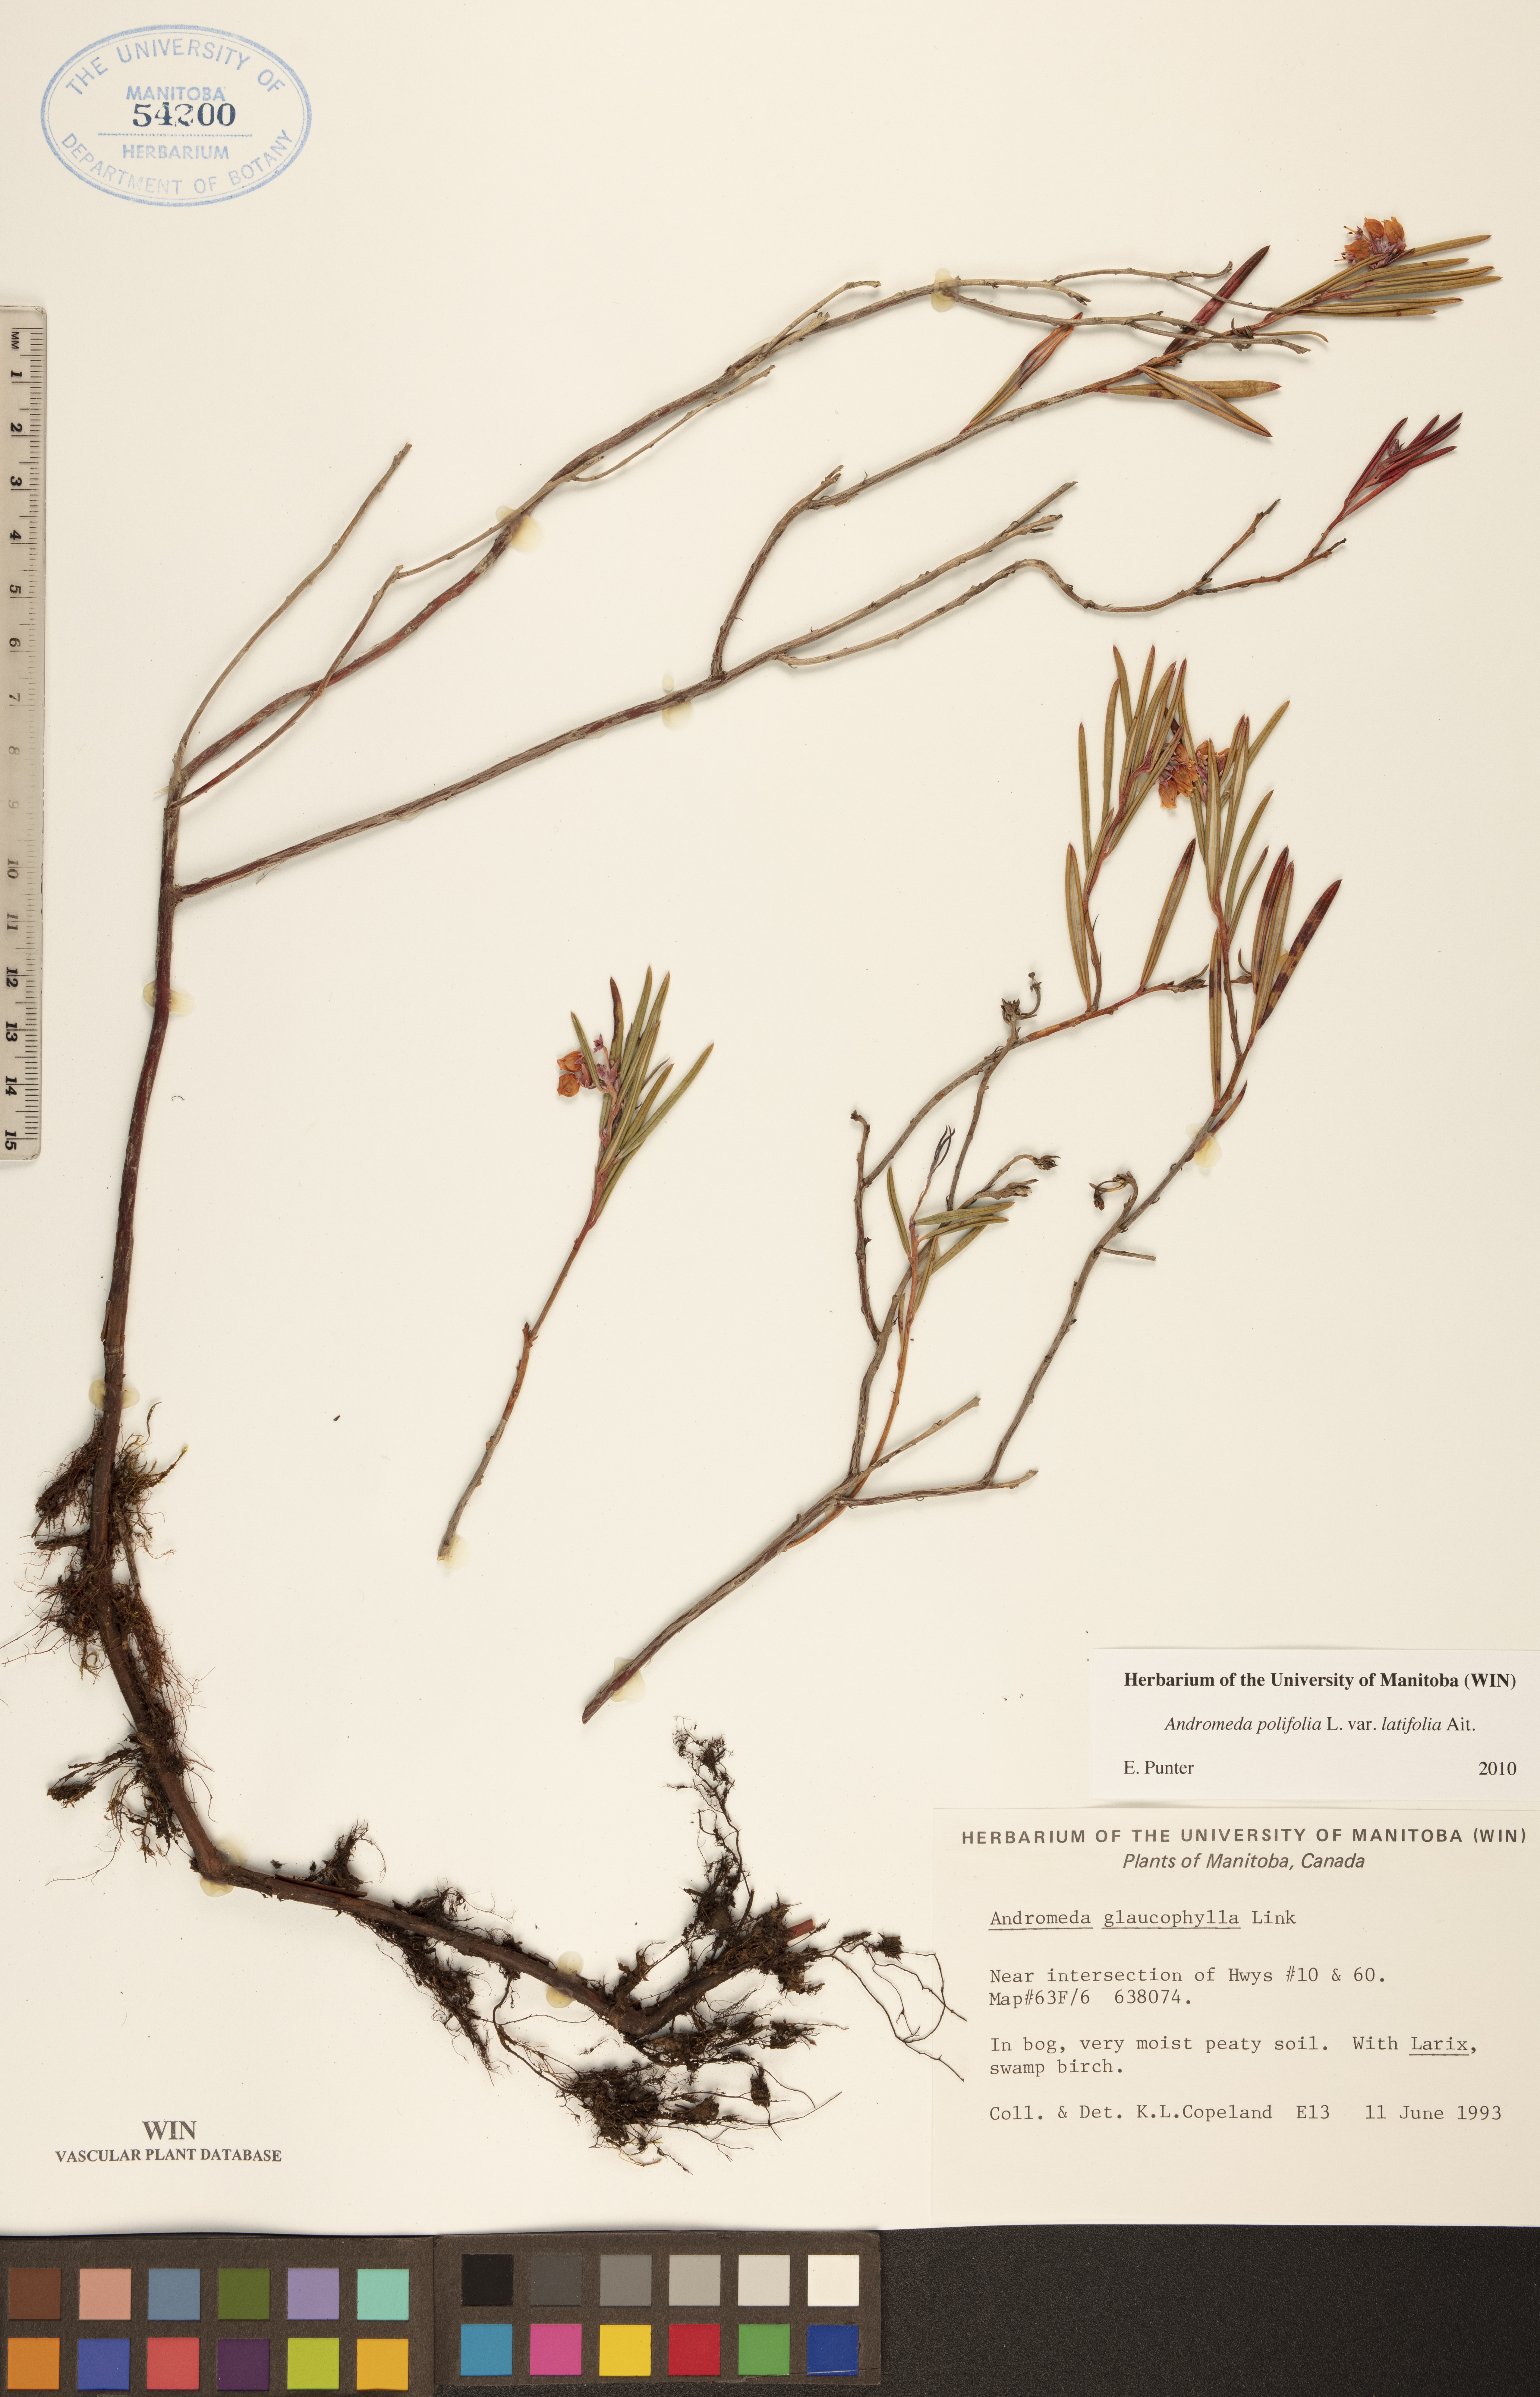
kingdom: Plantae
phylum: Tracheophyta
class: Magnoliopsida
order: Ericales
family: Ericaceae
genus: Andromeda
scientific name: Andromeda polifolia
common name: Bog-rosemary
